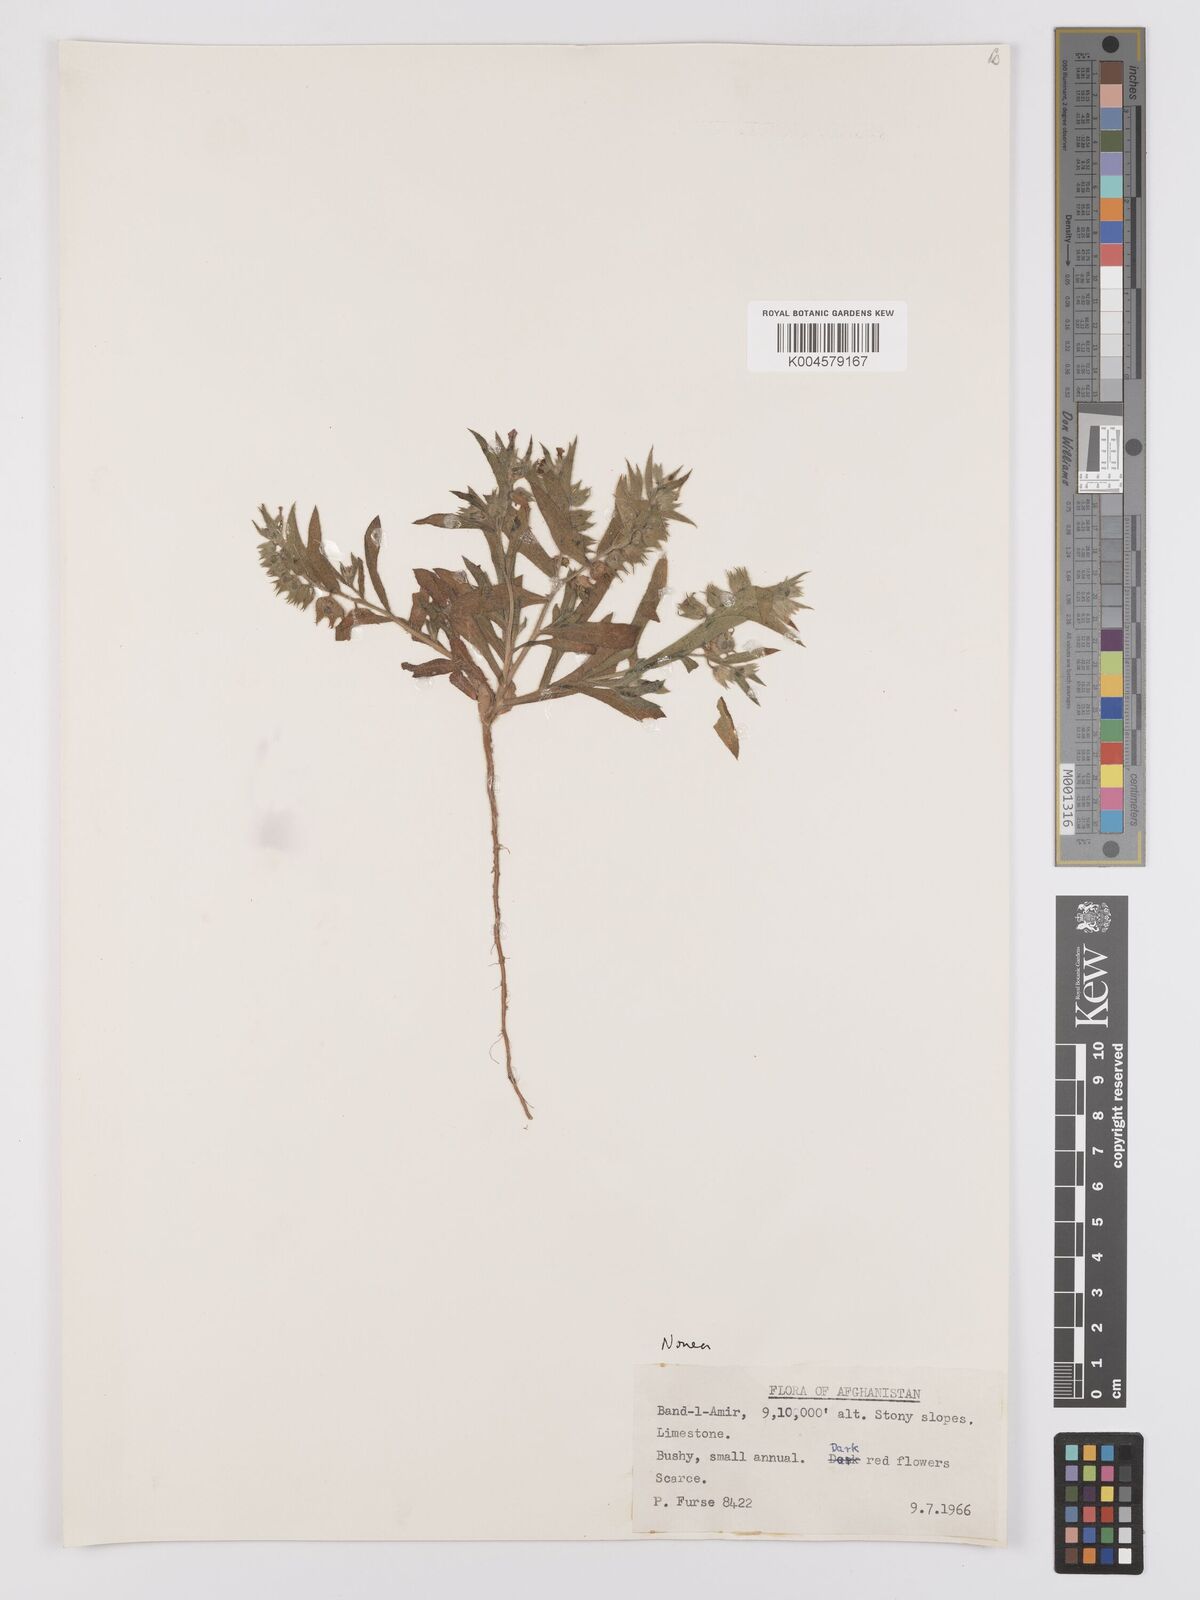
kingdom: Plantae
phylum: Tracheophyta
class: Magnoliopsida
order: Boraginales
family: Boraginaceae
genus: Nonea
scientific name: Nonea
